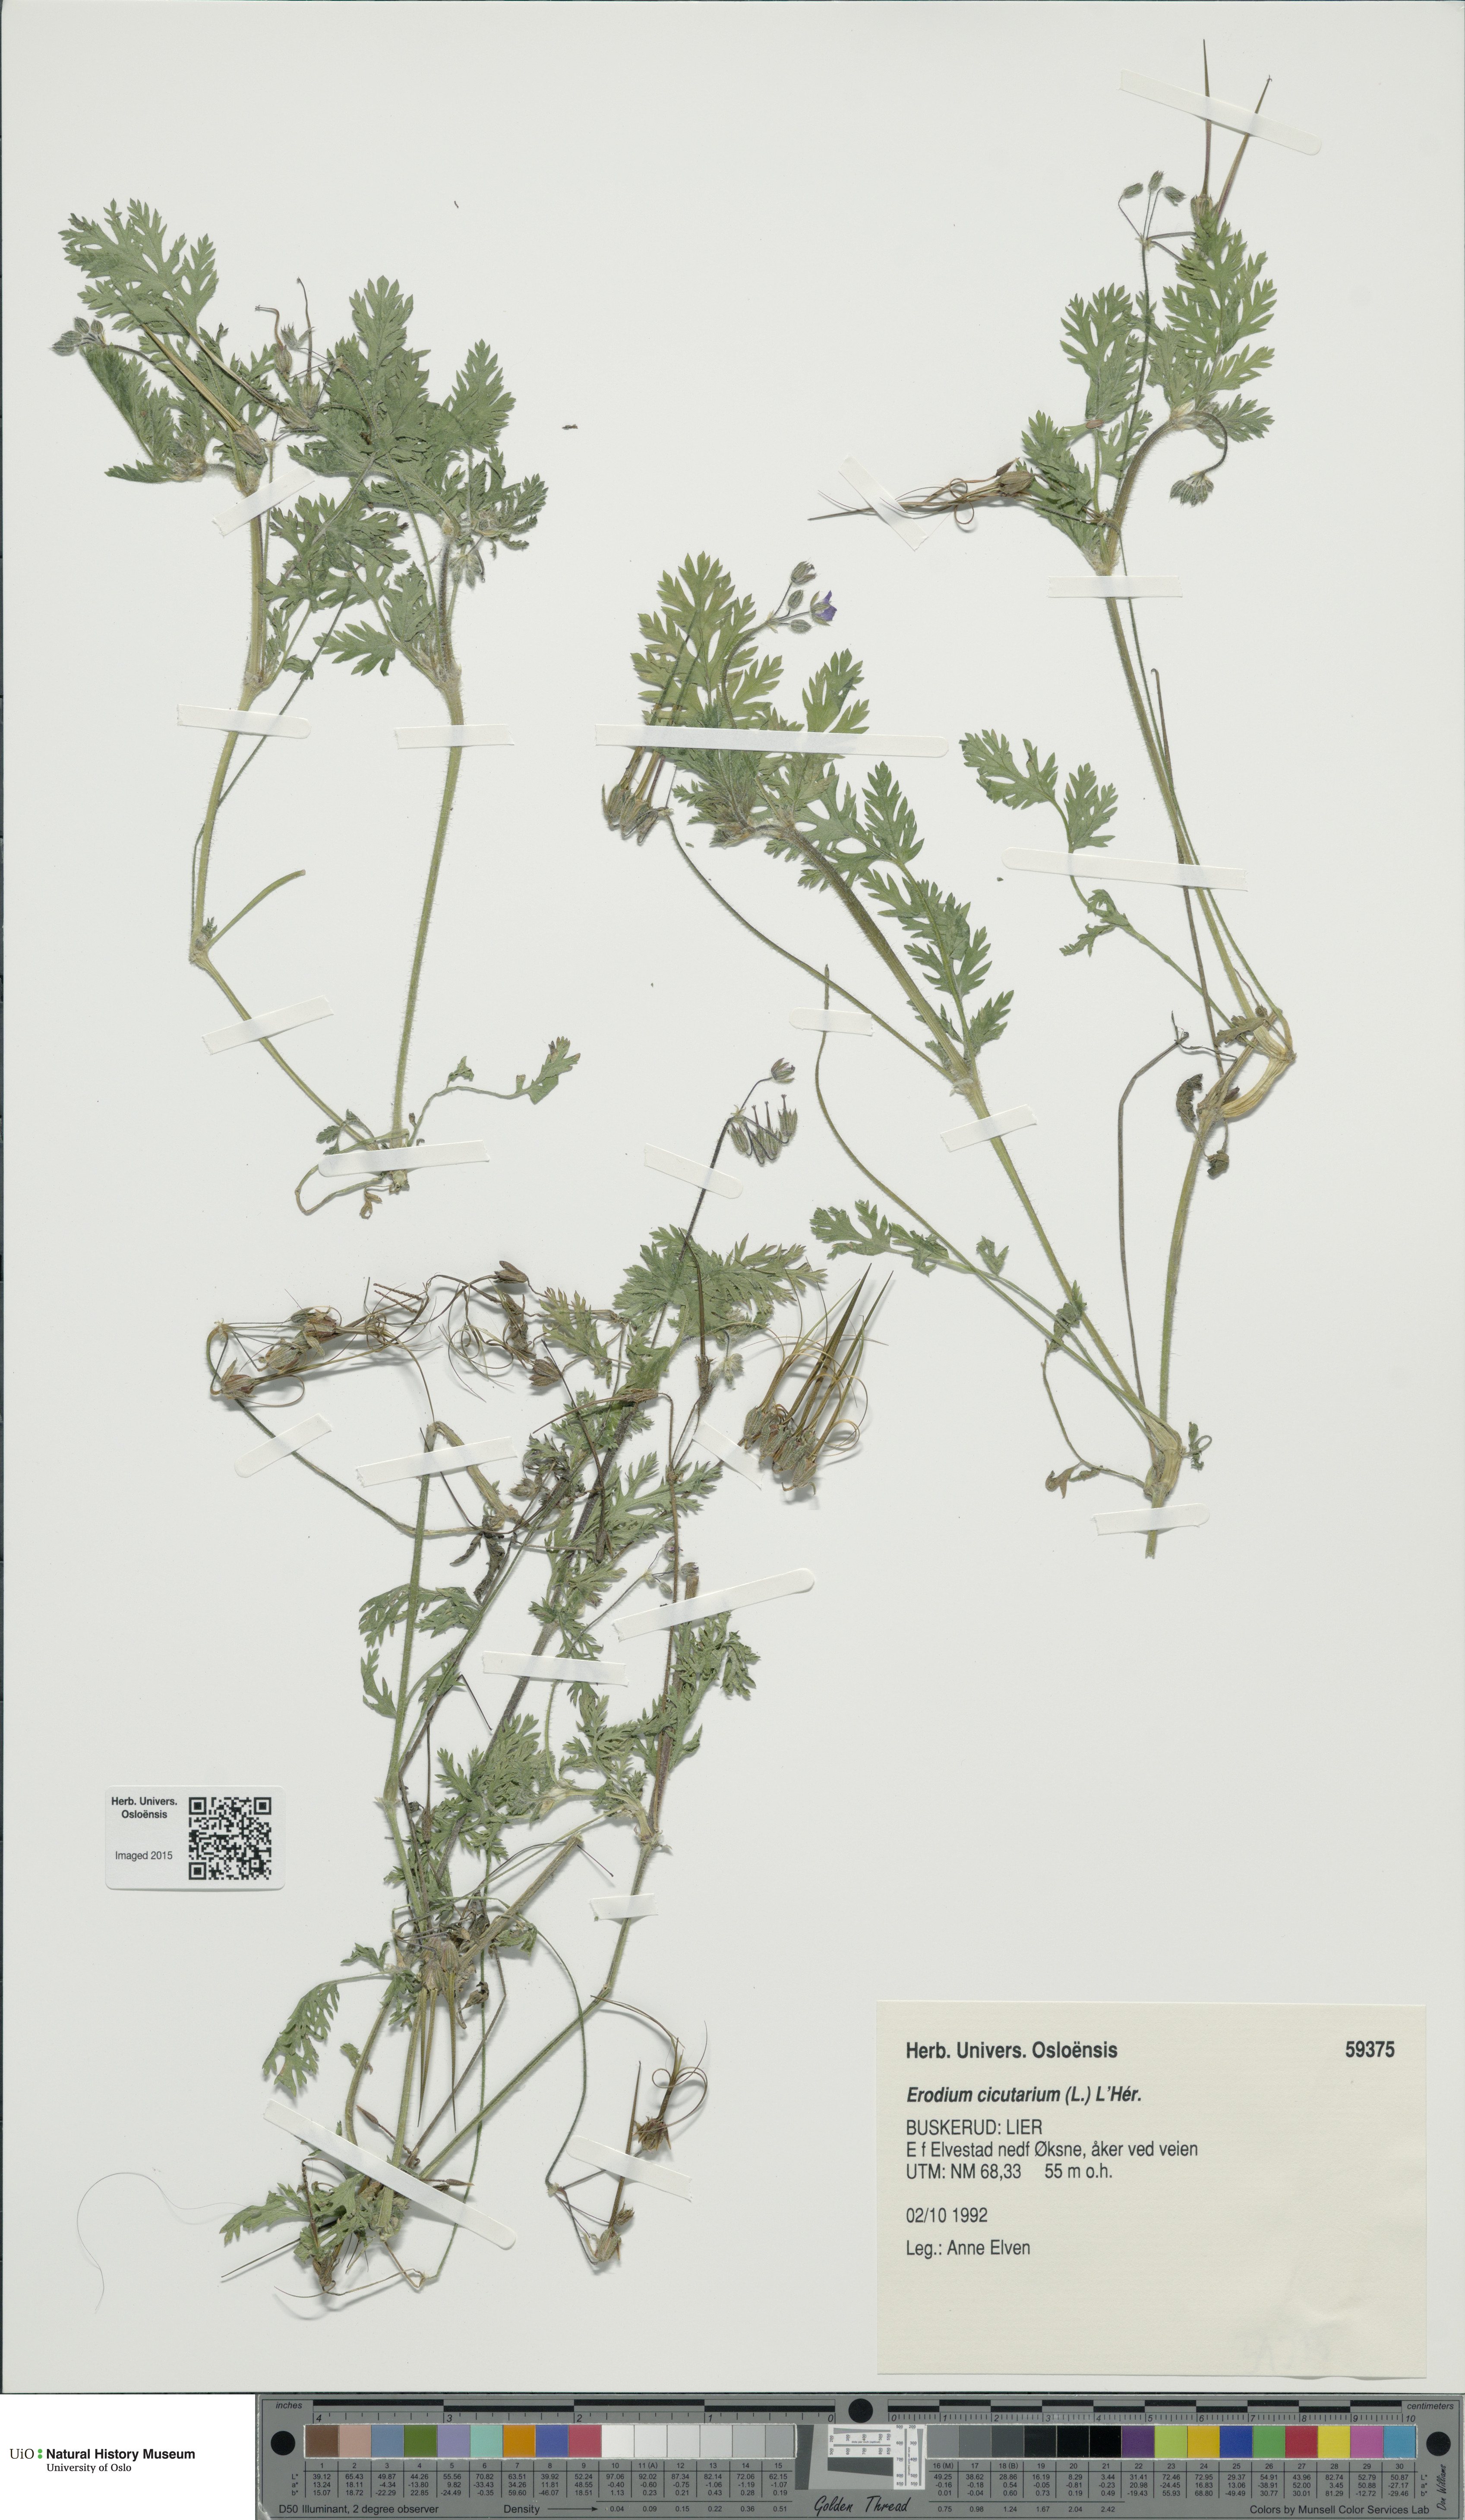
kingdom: Plantae
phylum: Tracheophyta
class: Magnoliopsida
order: Geraniales
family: Geraniaceae
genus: Erodium
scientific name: Erodium cicutarium
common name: Common stork's-bill
